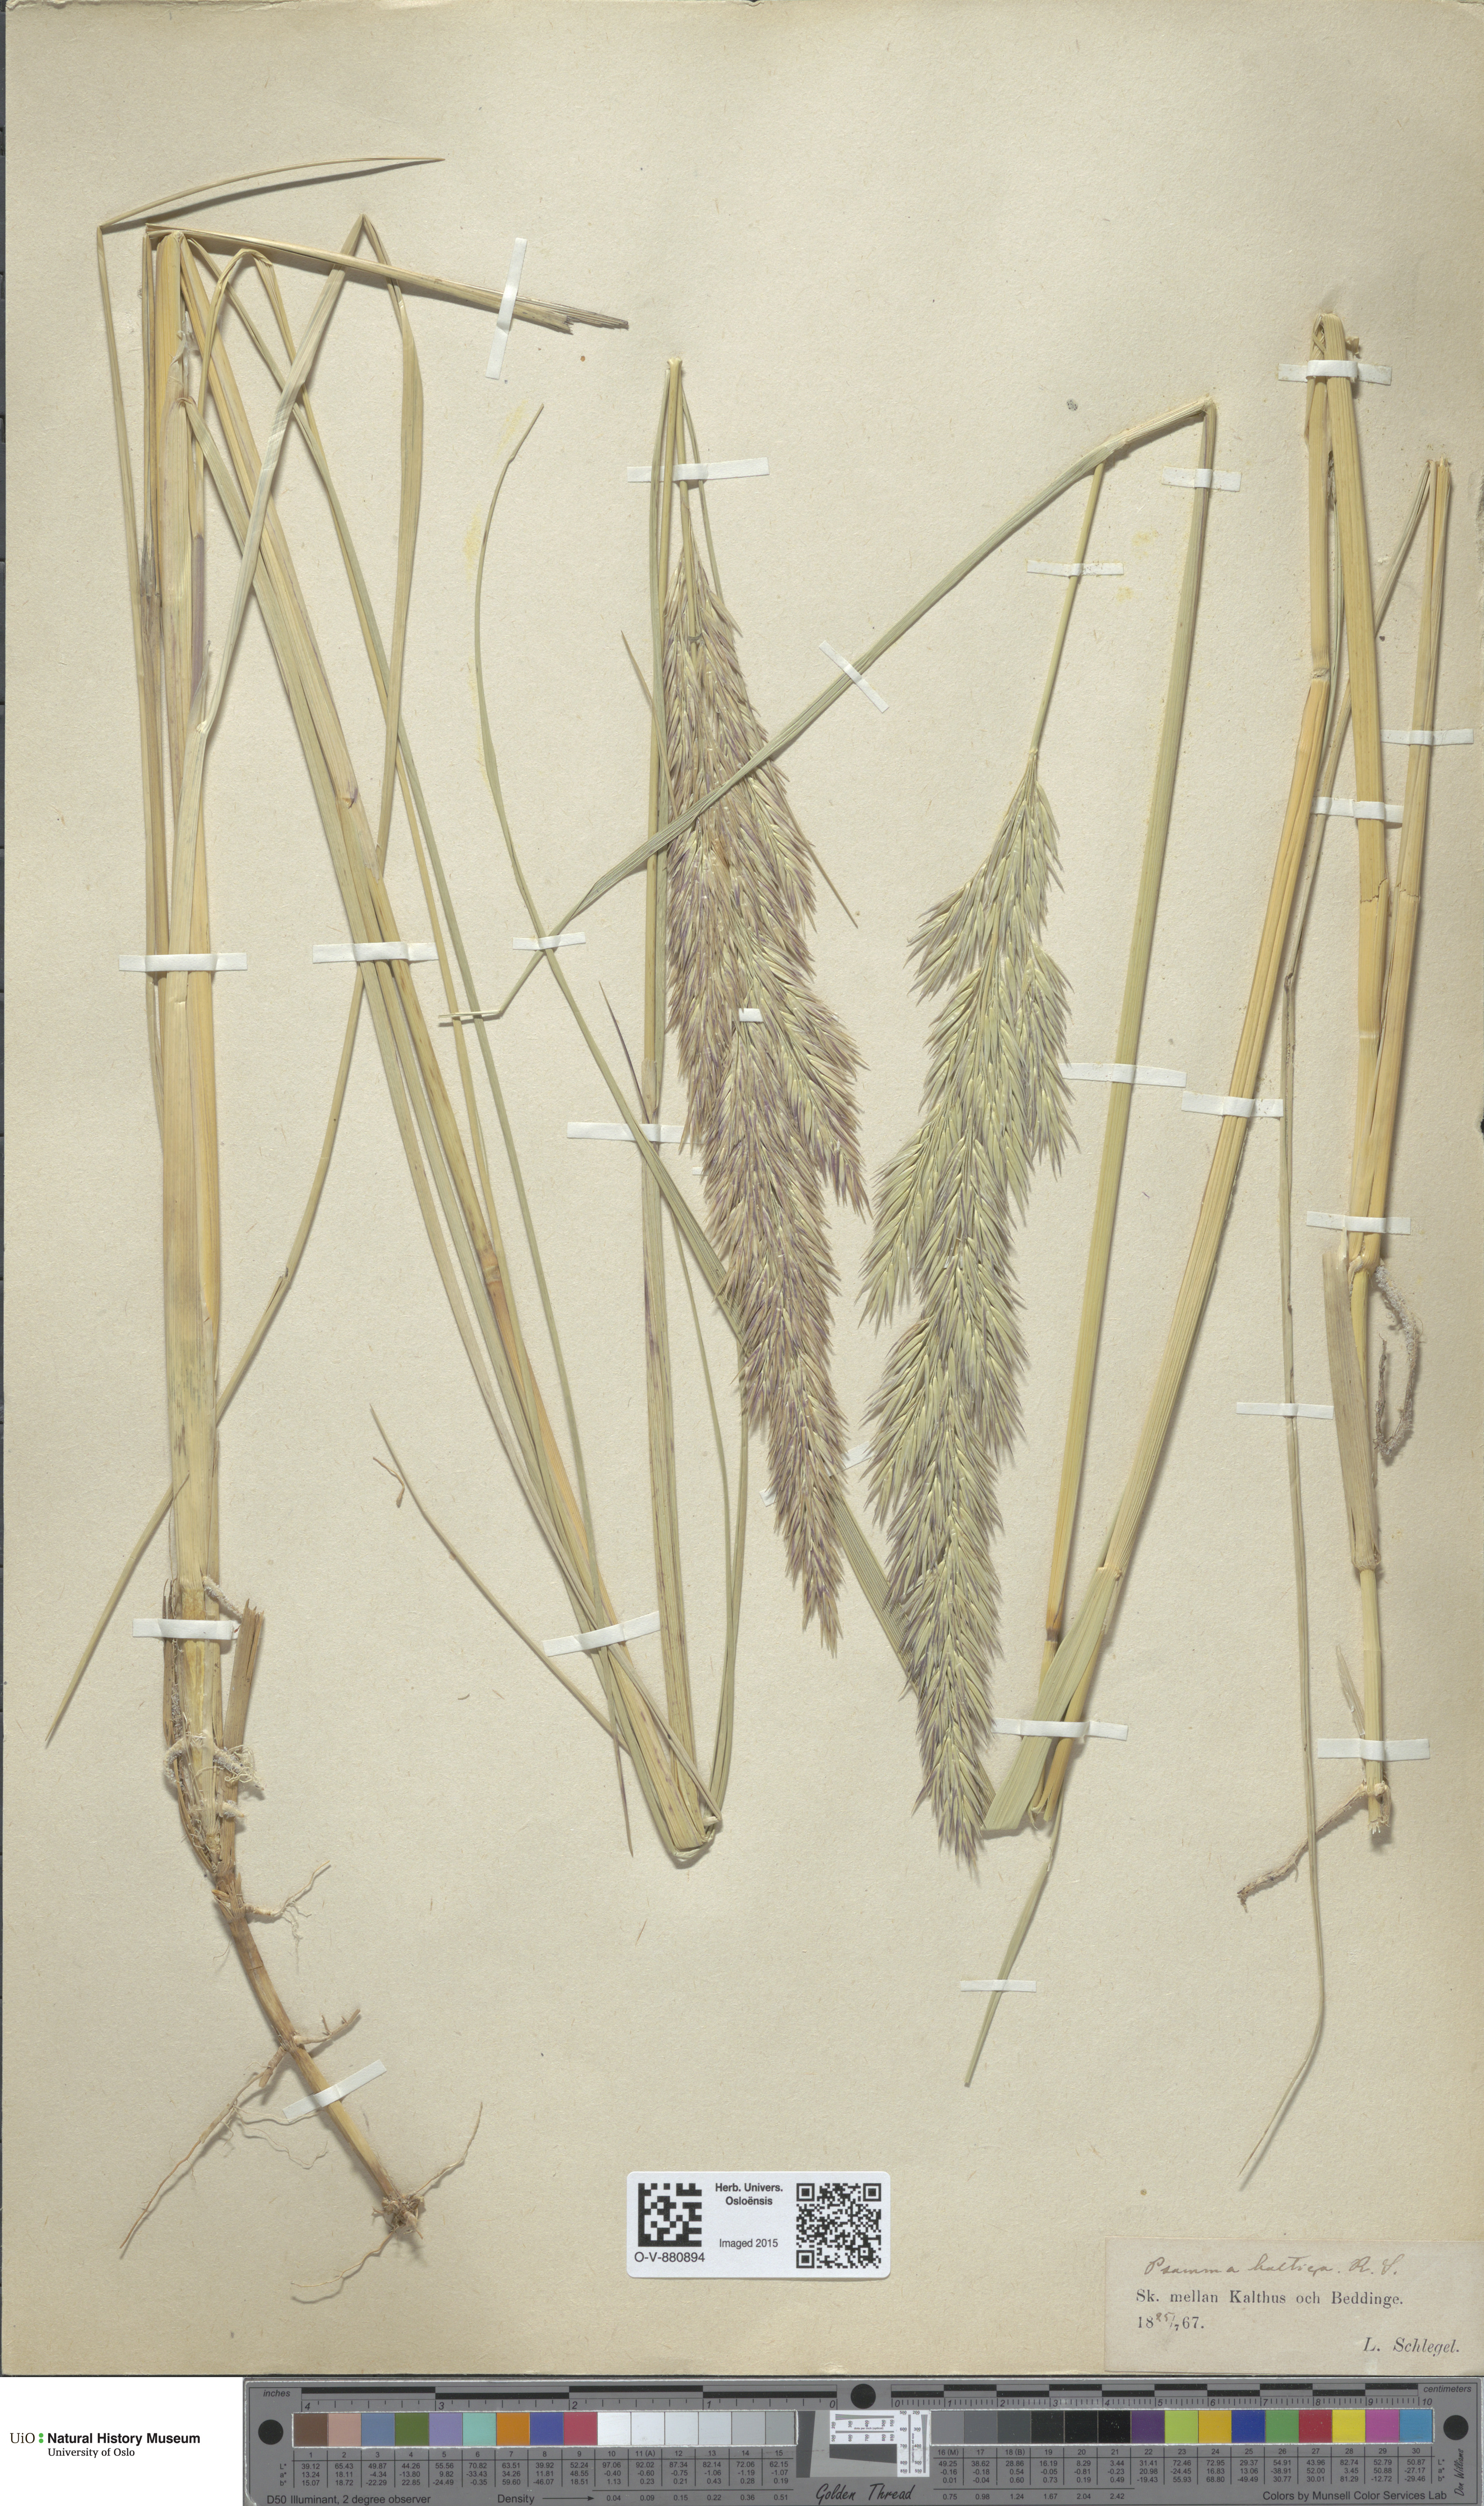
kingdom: Plantae
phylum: Tracheophyta
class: Liliopsida
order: Poales
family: Poaceae
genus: Calamagrostis
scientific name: Calamagrostis baltica
